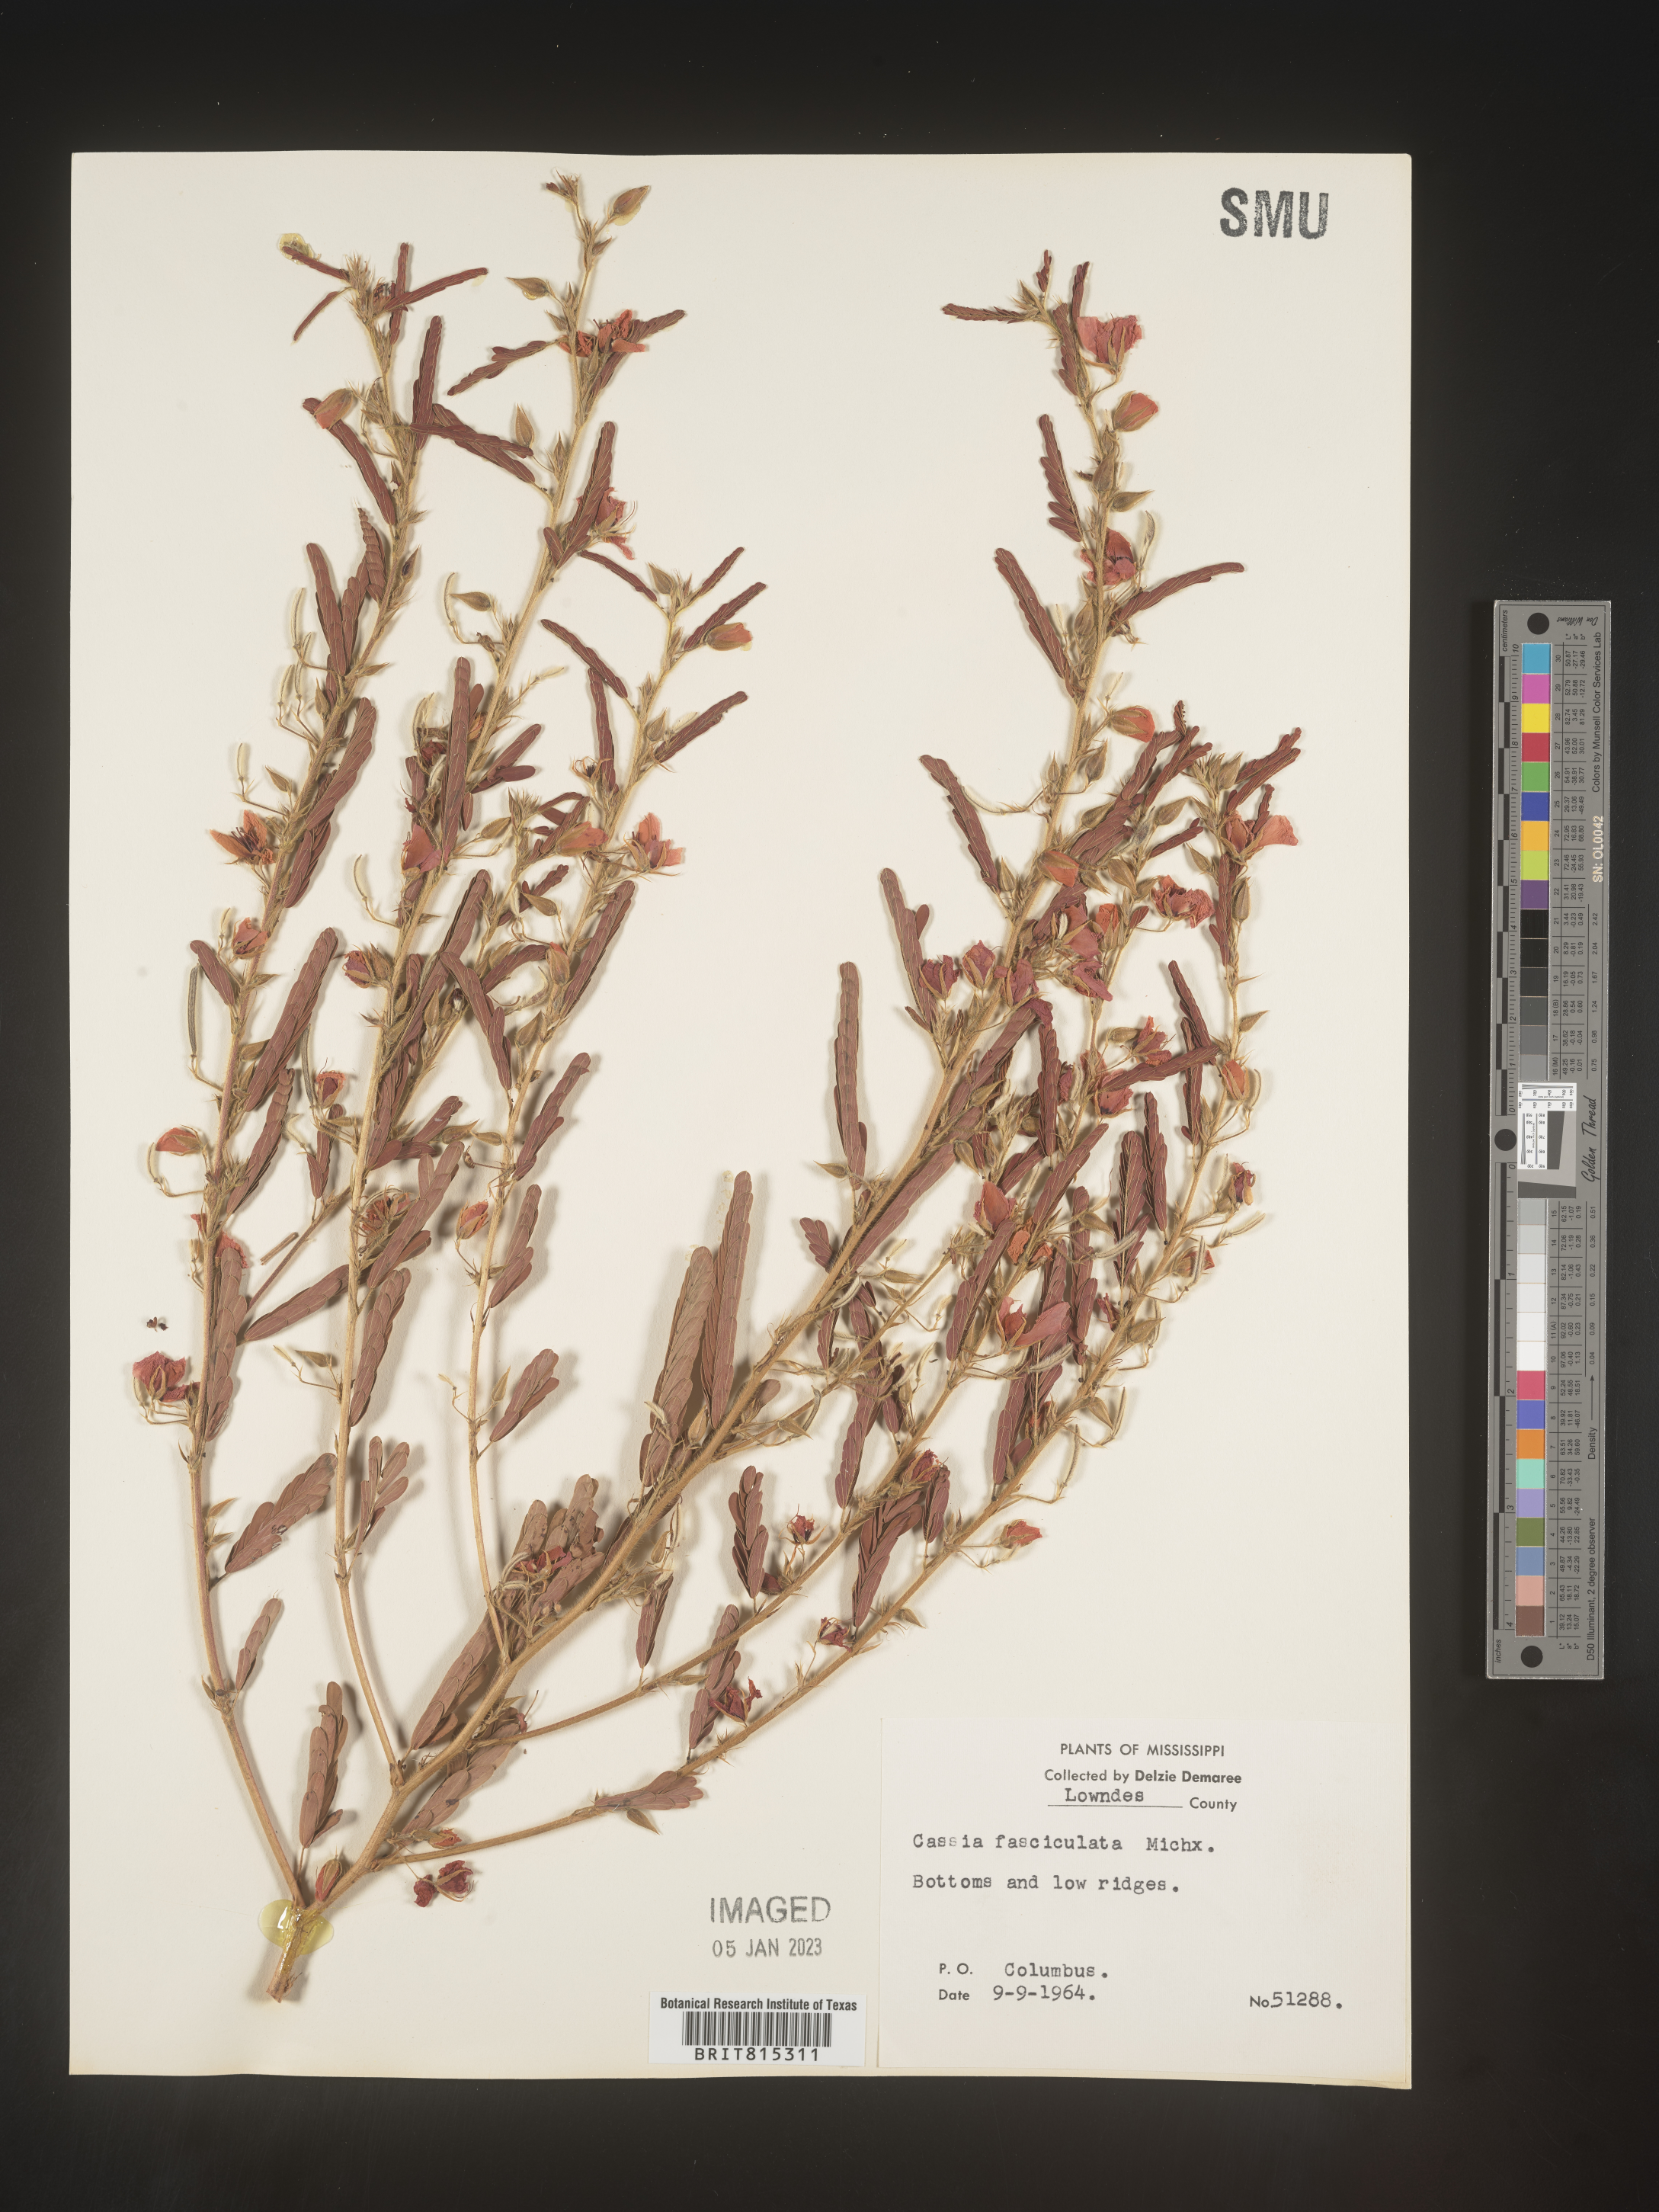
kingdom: Plantae
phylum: Tracheophyta
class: Magnoliopsida
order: Fabales
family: Fabaceae
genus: Chamaecrista
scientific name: Chamaecrista fasciculata
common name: Golden cassia
